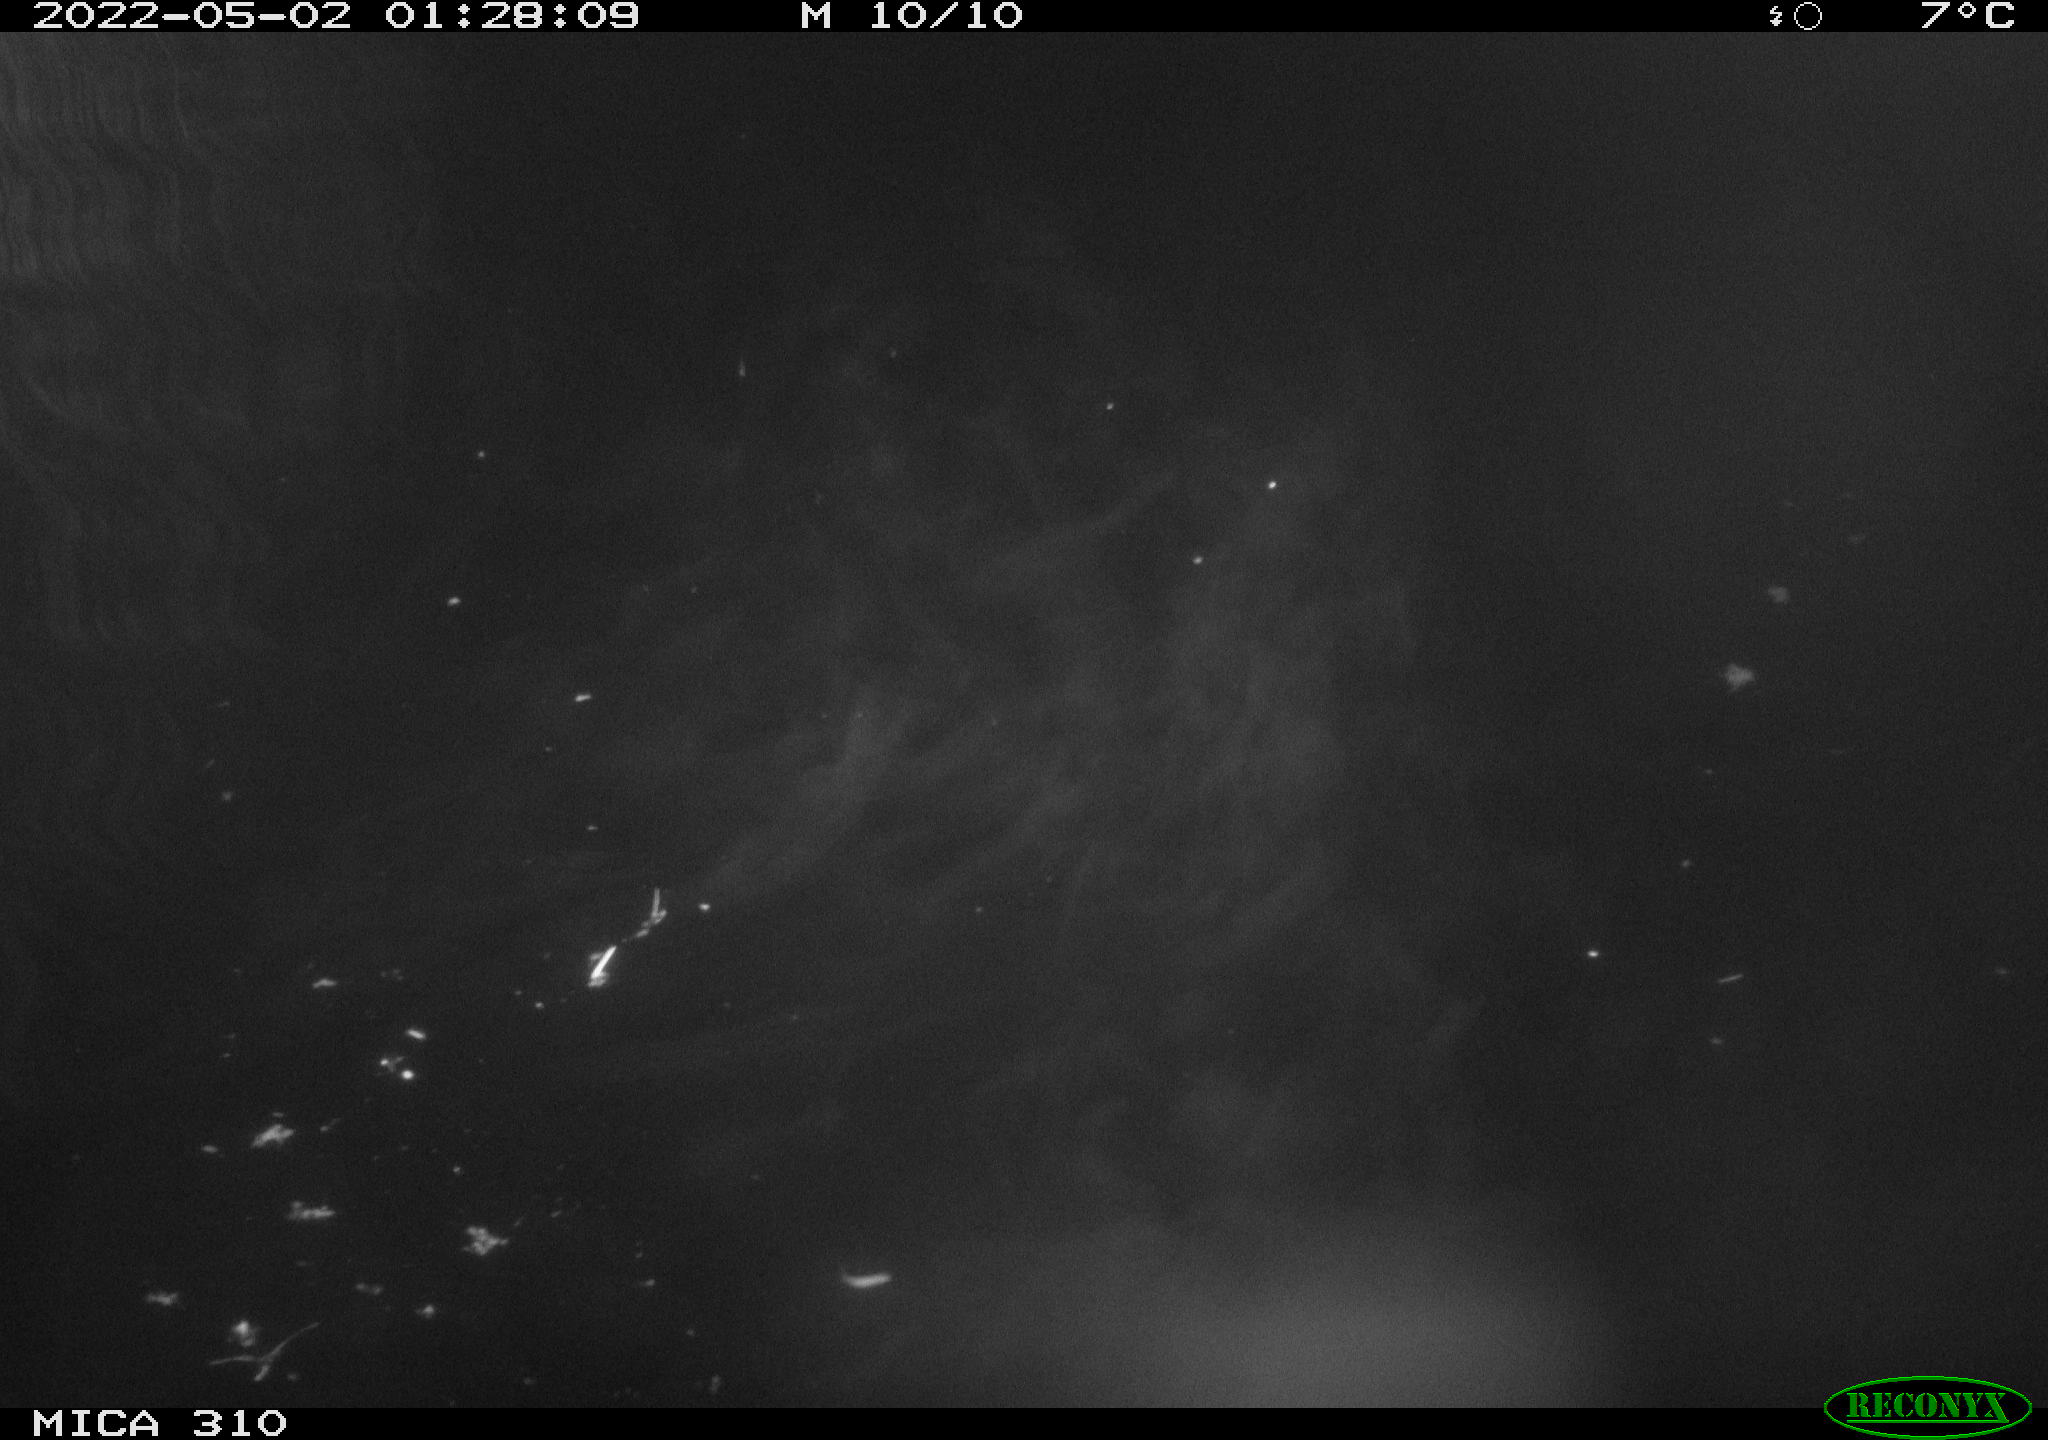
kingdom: Animalia
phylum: Chordata
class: Aves
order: Anseriformes
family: Anatidae
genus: Anas
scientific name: Anas platyrhynchos
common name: Mallard
